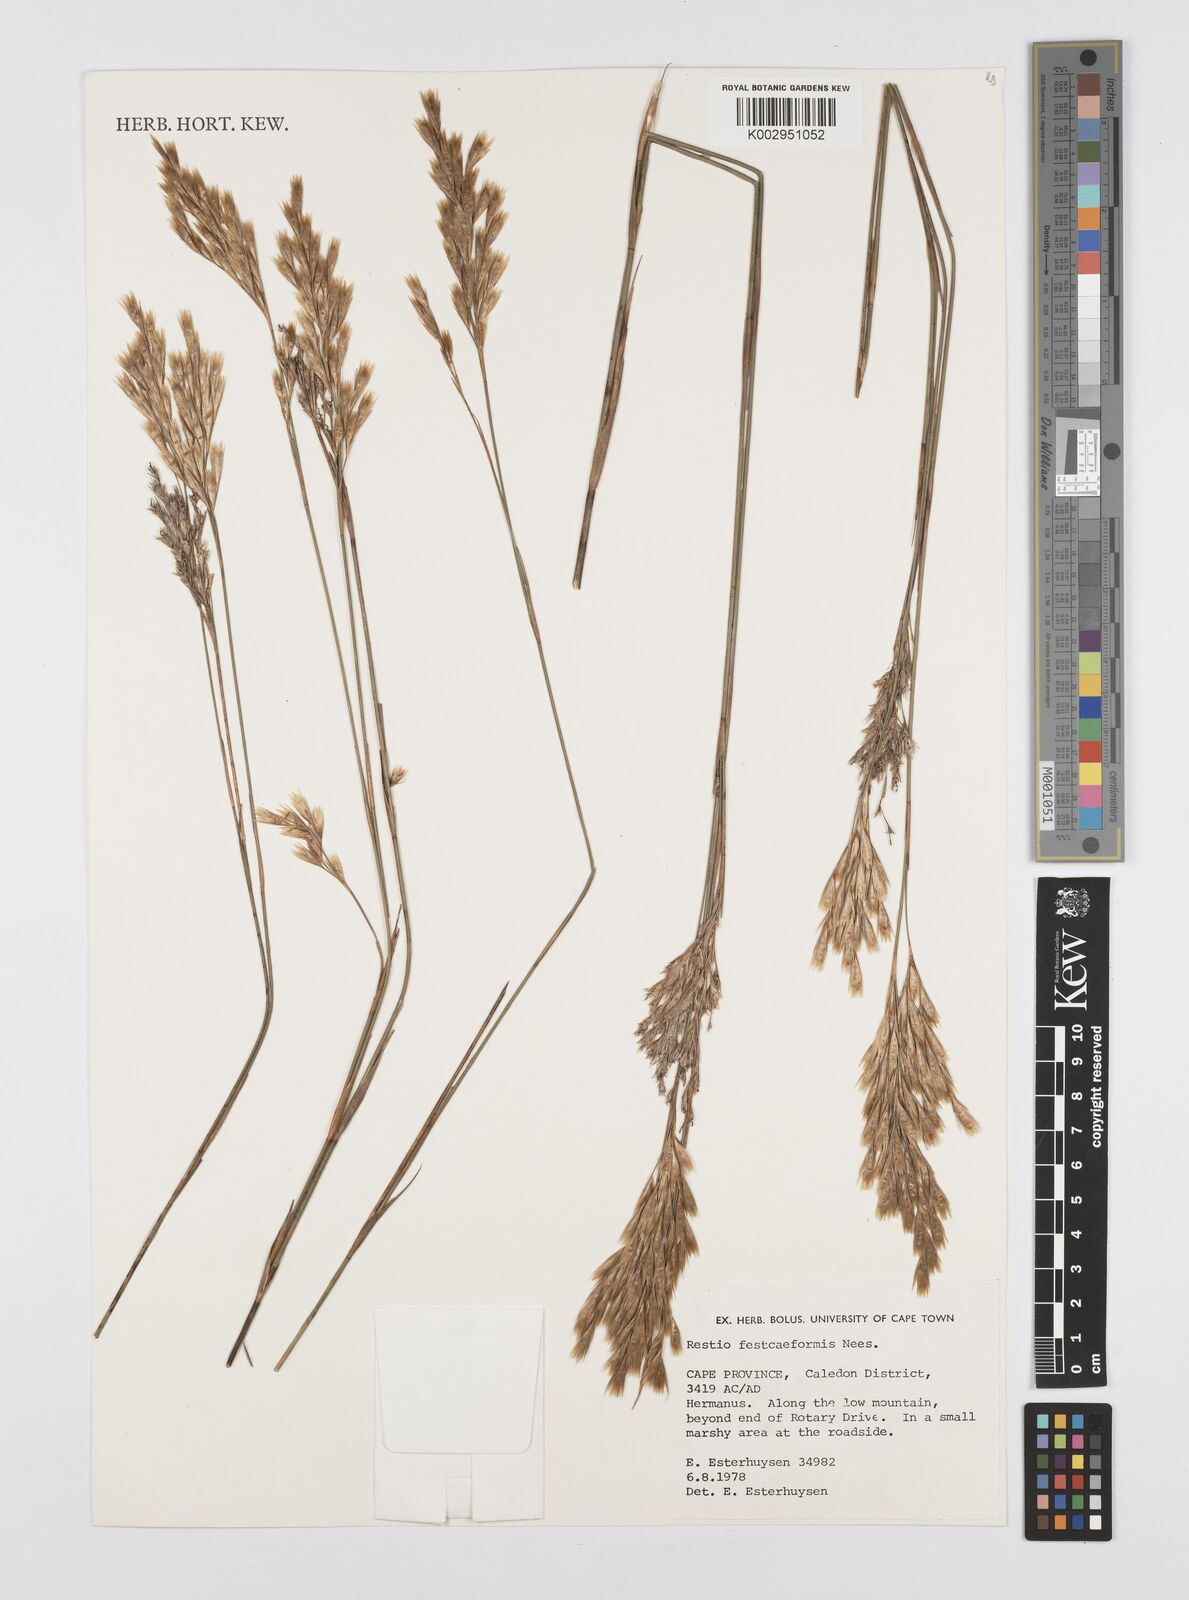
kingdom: Plantae
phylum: Tracheophyta
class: Liliopsida
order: Poales
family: Restionaceae
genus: Restio
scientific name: Restio festuciformis
